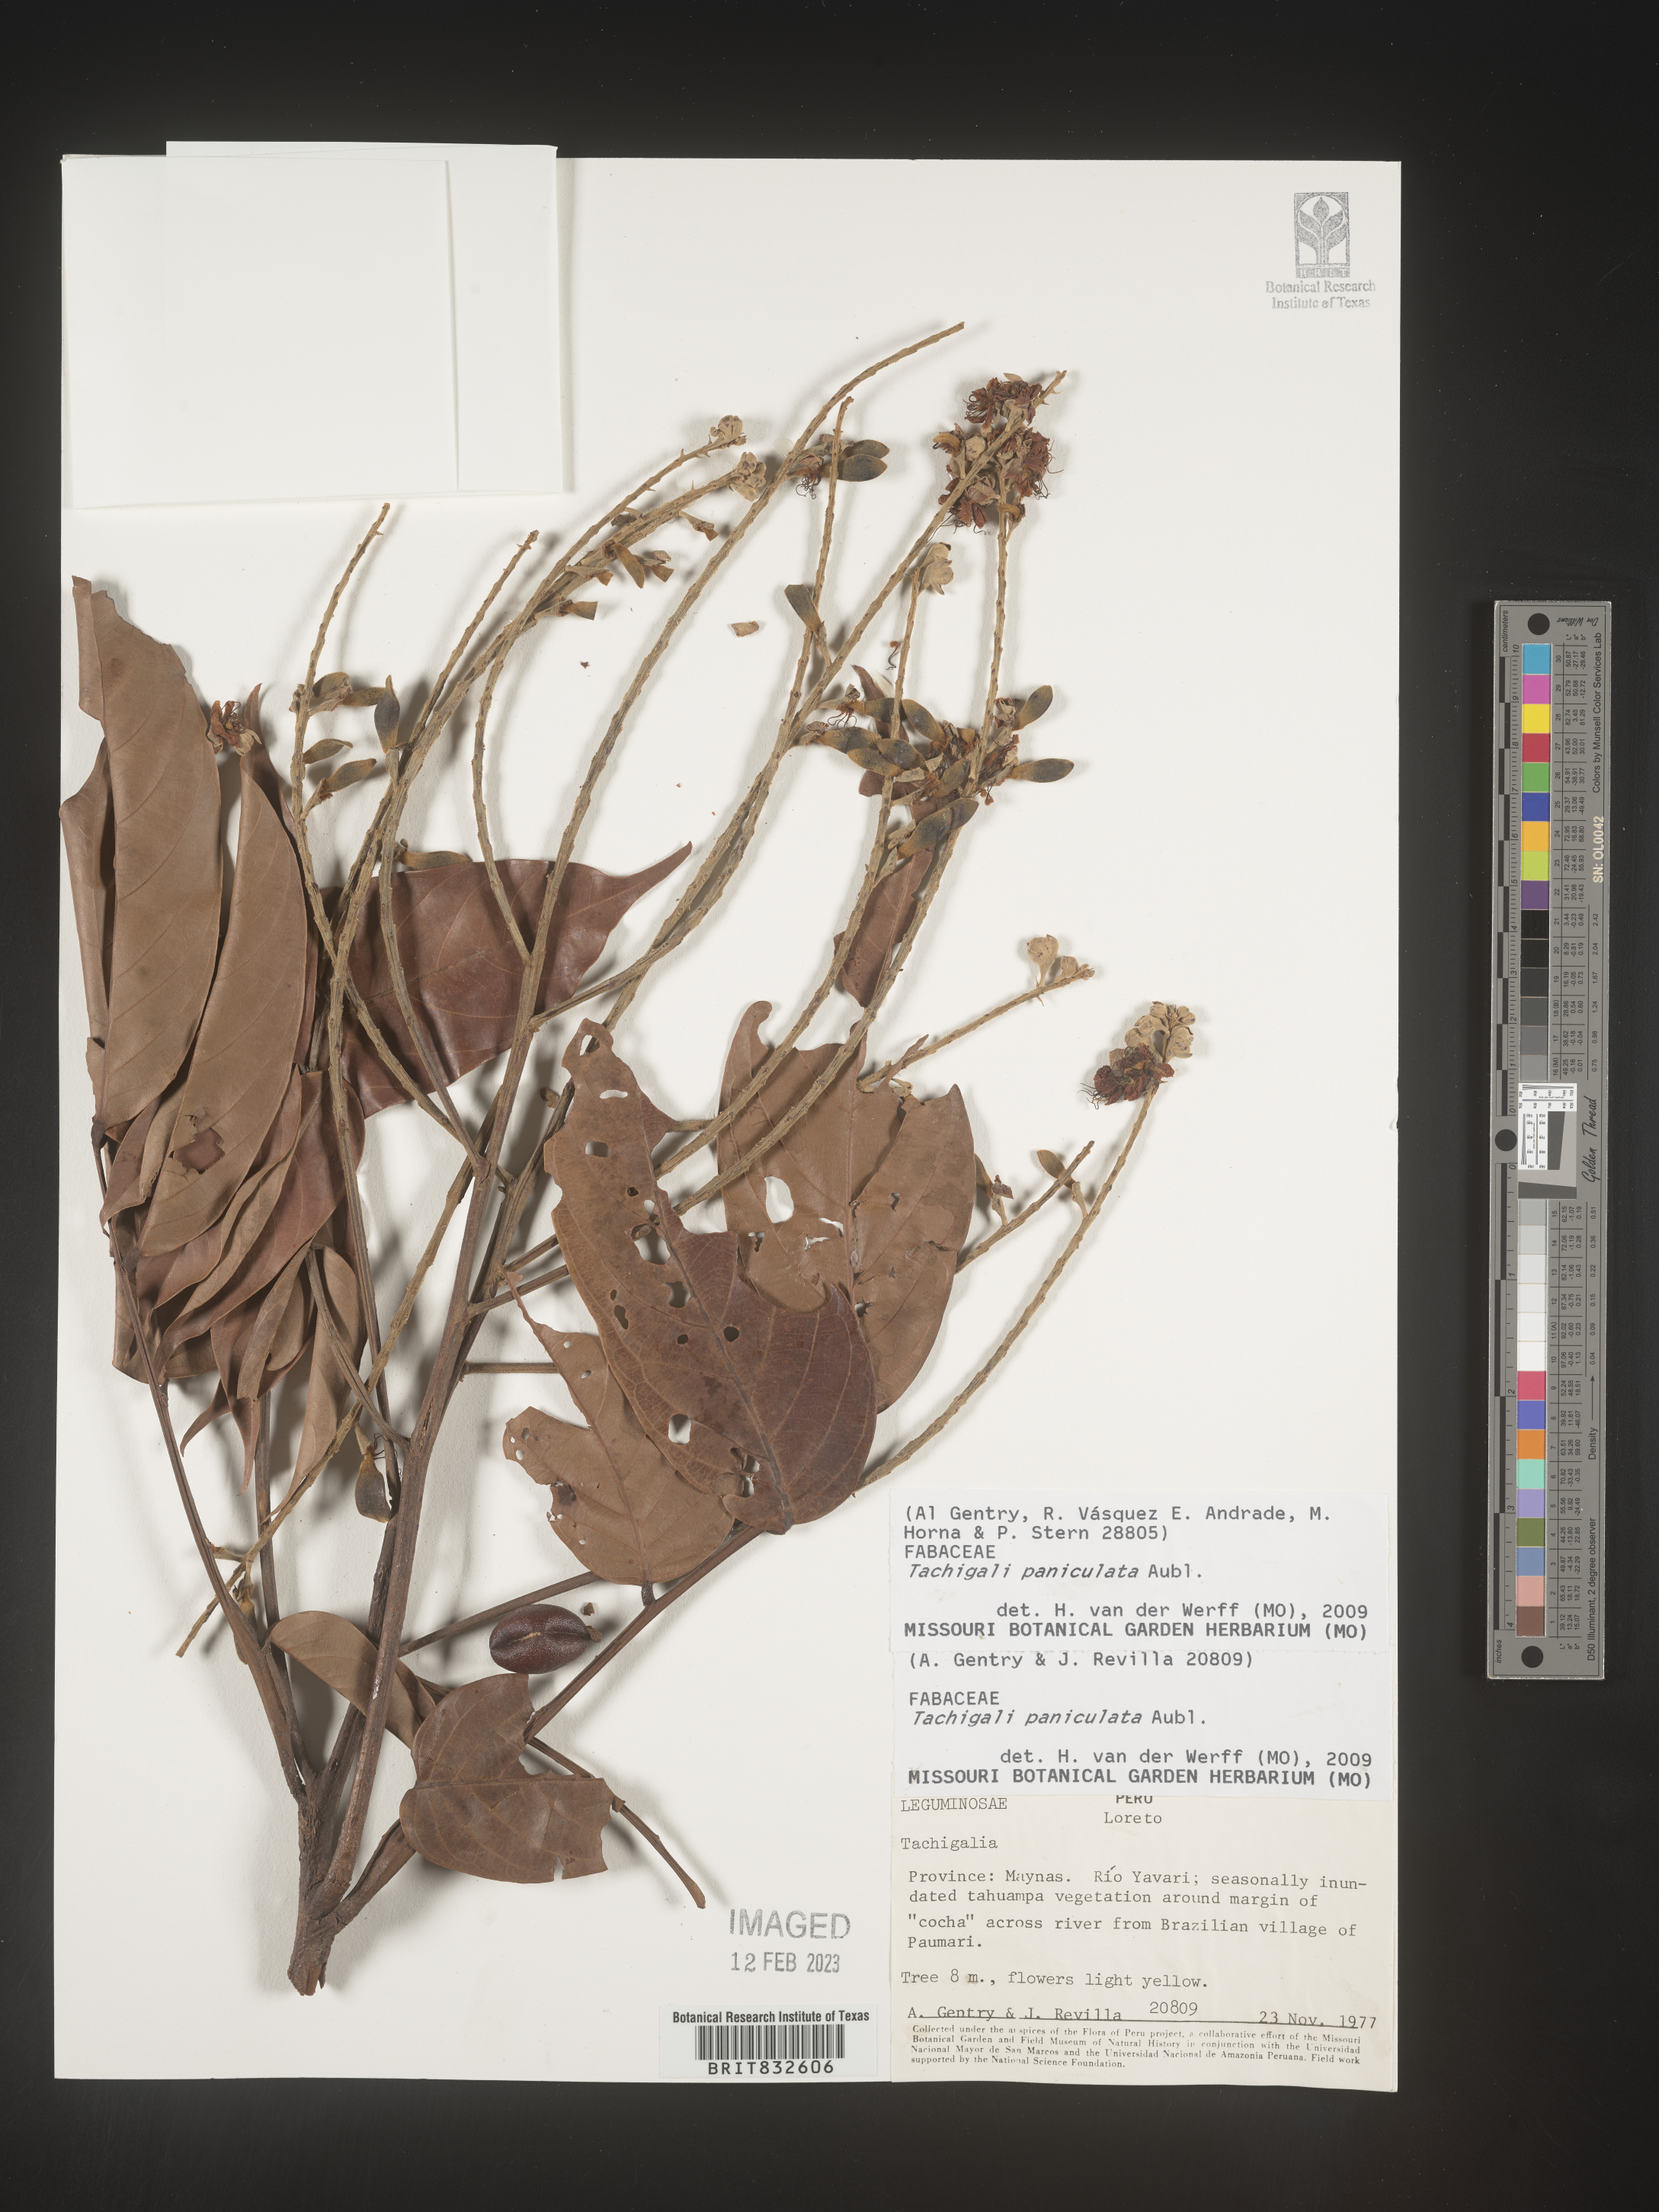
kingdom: Plantae
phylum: Tracheophyta
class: Magnoliopsida
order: Fabales
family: Fabaceae
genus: Tachigali
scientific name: Tachigali
